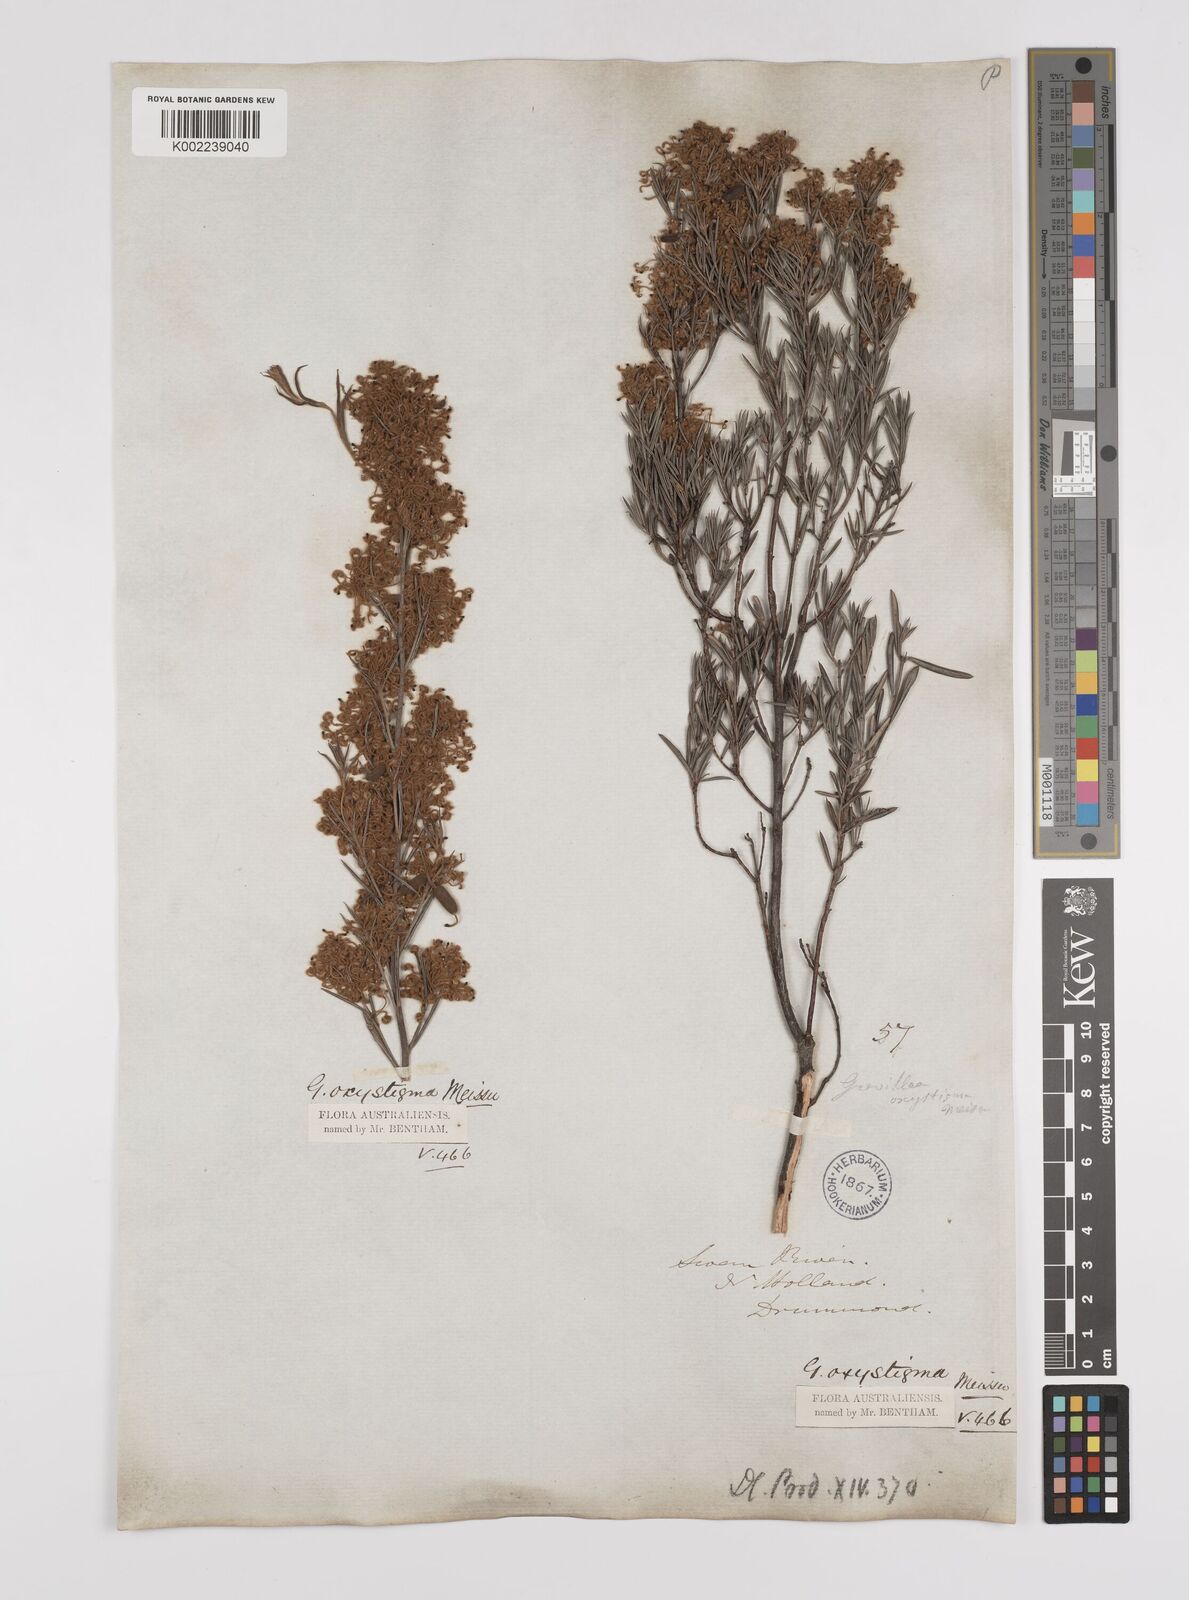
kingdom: Plantae
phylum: Tracheophyta
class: Magnoliopsida
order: Proteales
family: Proteaceae
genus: Grevillea
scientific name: Grevillea pilulifera
